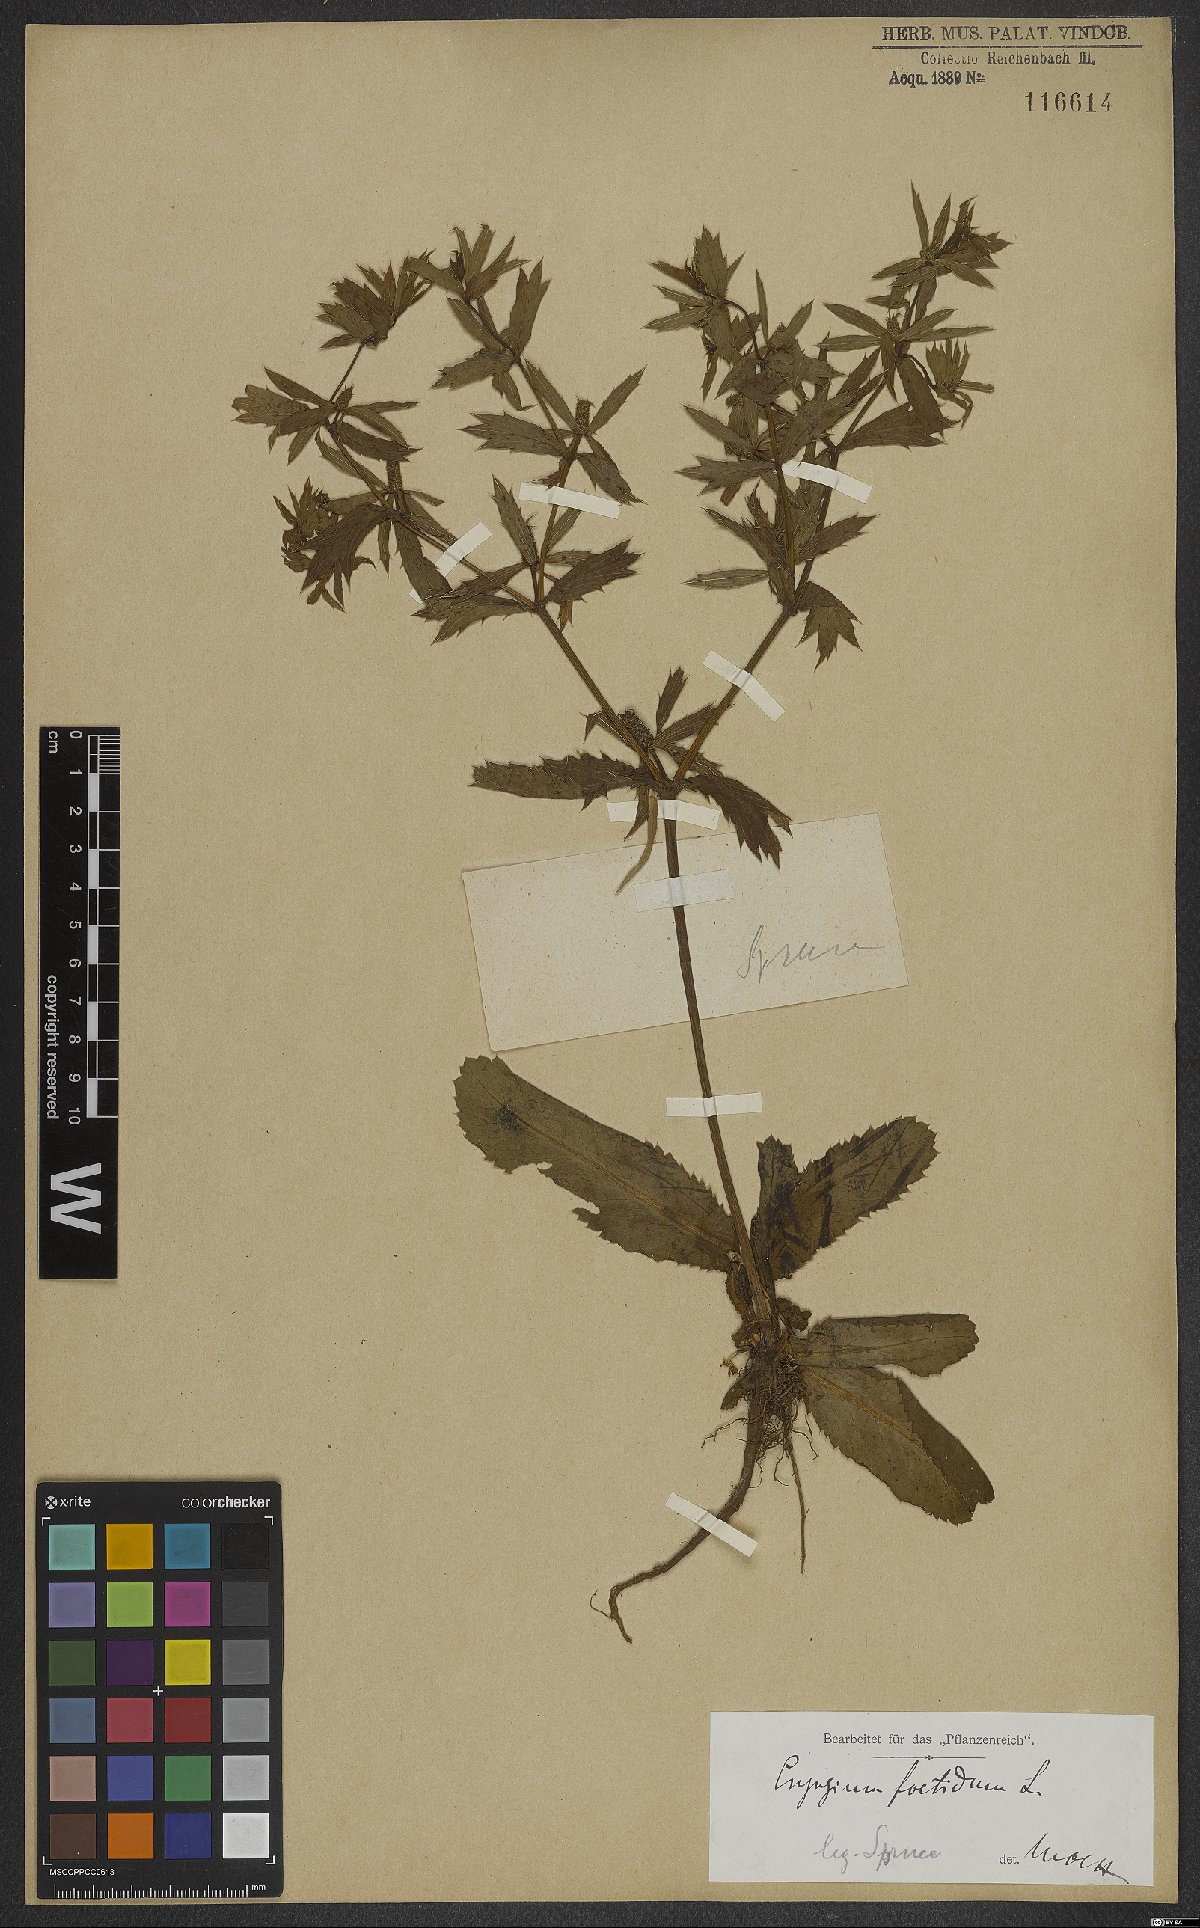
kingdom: Plantae
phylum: Tracheophyta
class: Magnoliopsida
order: Apiales
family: Apiaceae
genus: Eryngium
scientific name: Eryngium foetidum
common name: Fitweed
